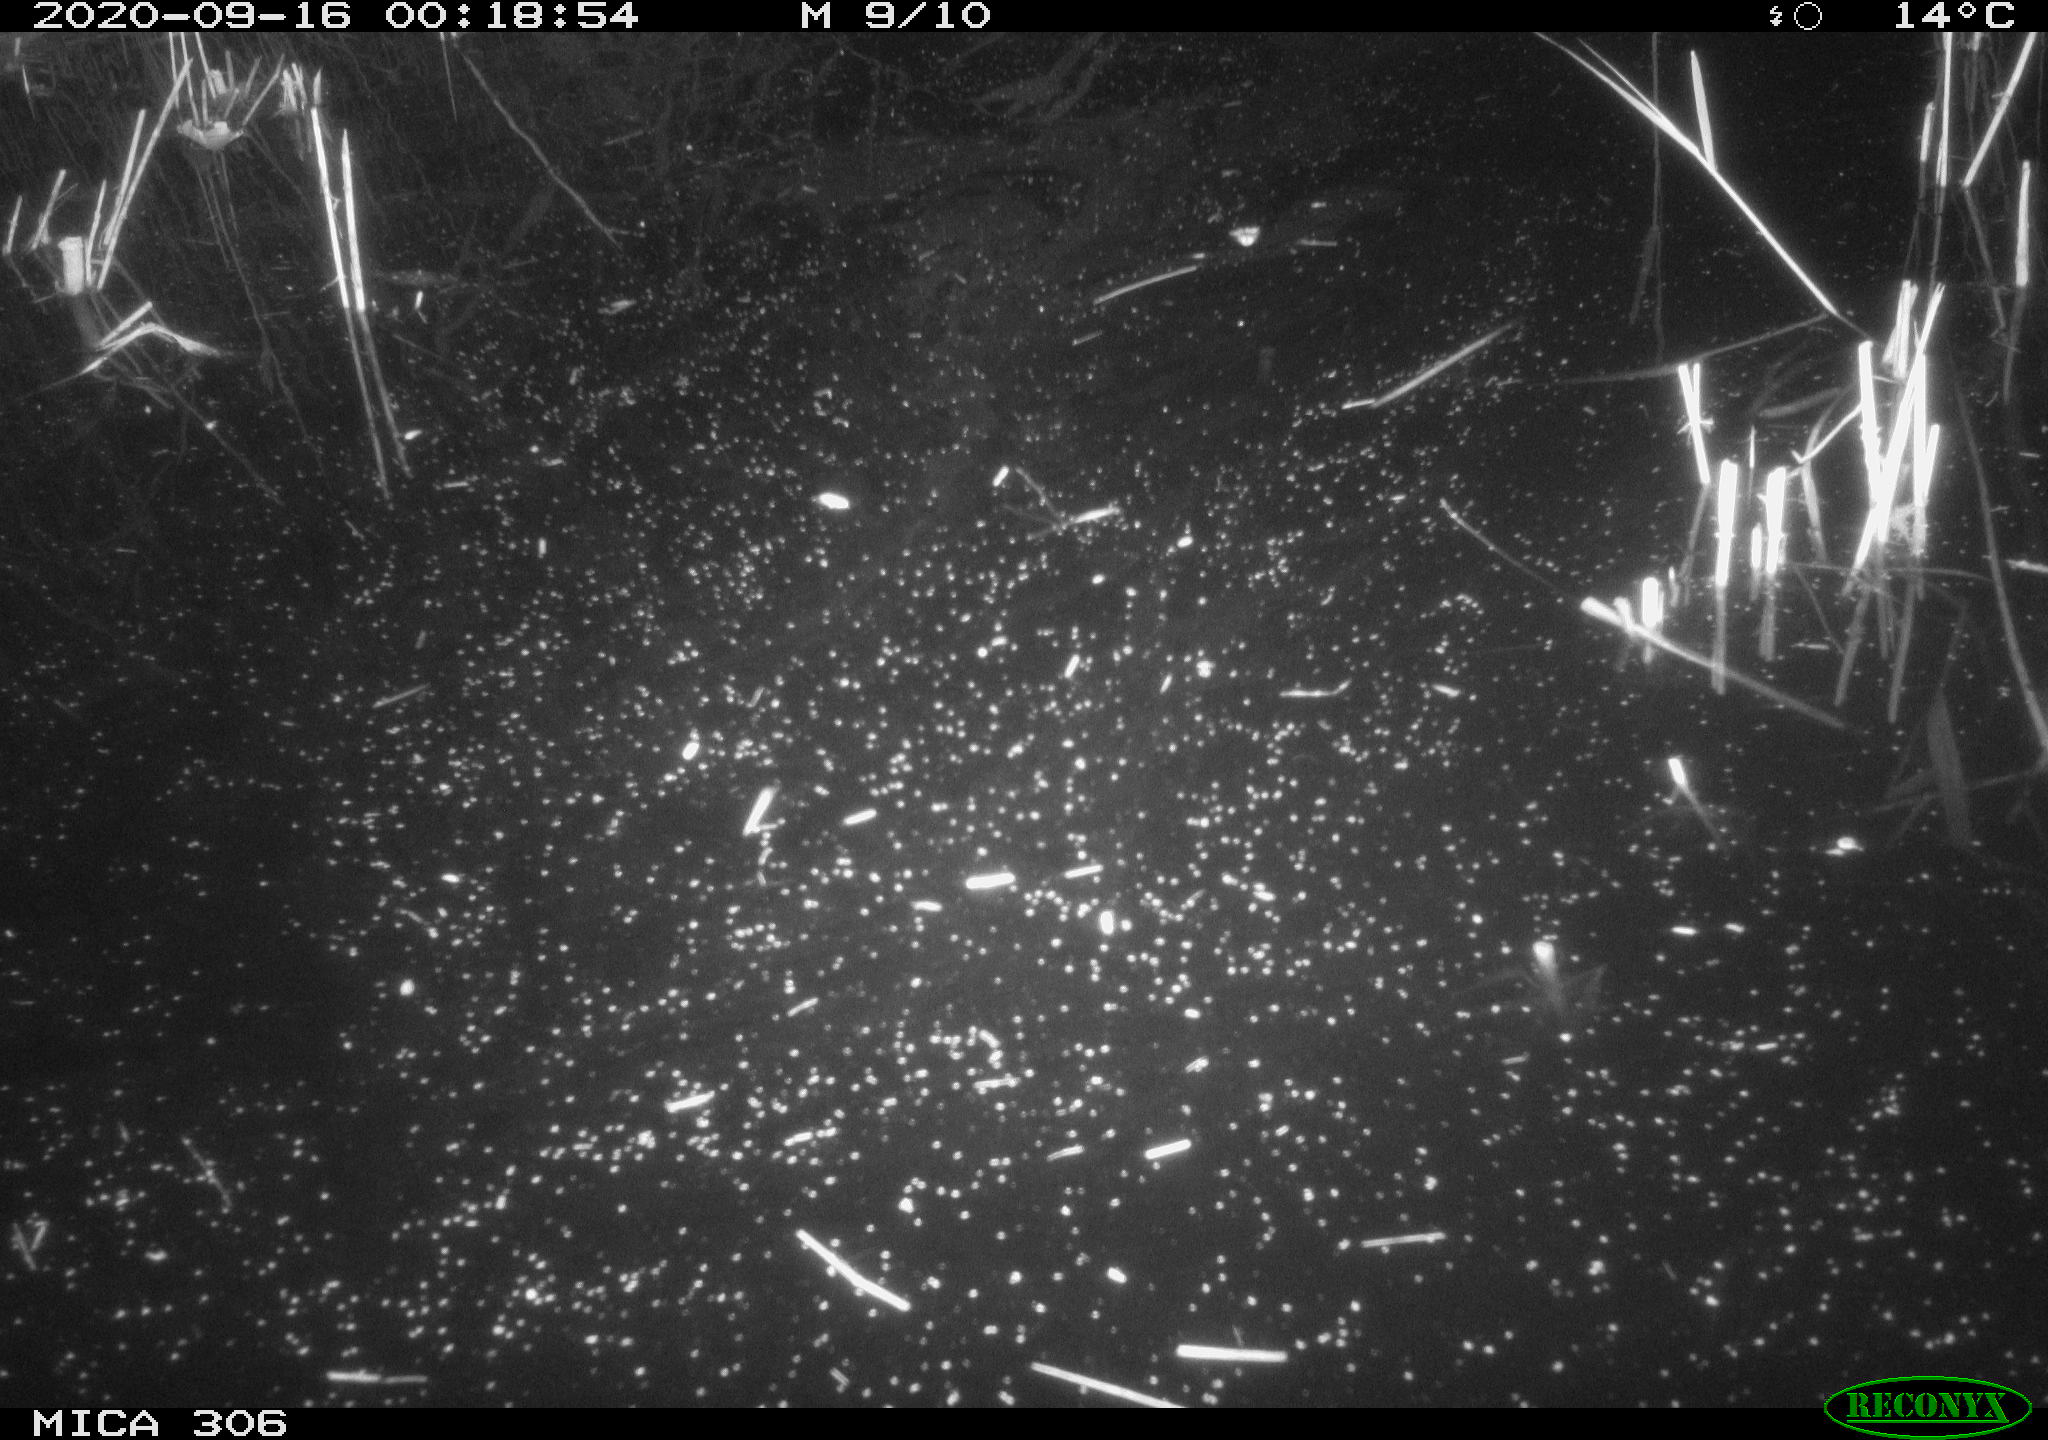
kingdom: Animalia
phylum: Chordata
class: Mammalia
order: Rodentia
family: Cricetidae
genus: Ondatra
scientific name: Ondatra zibethicus
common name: Muskrat
